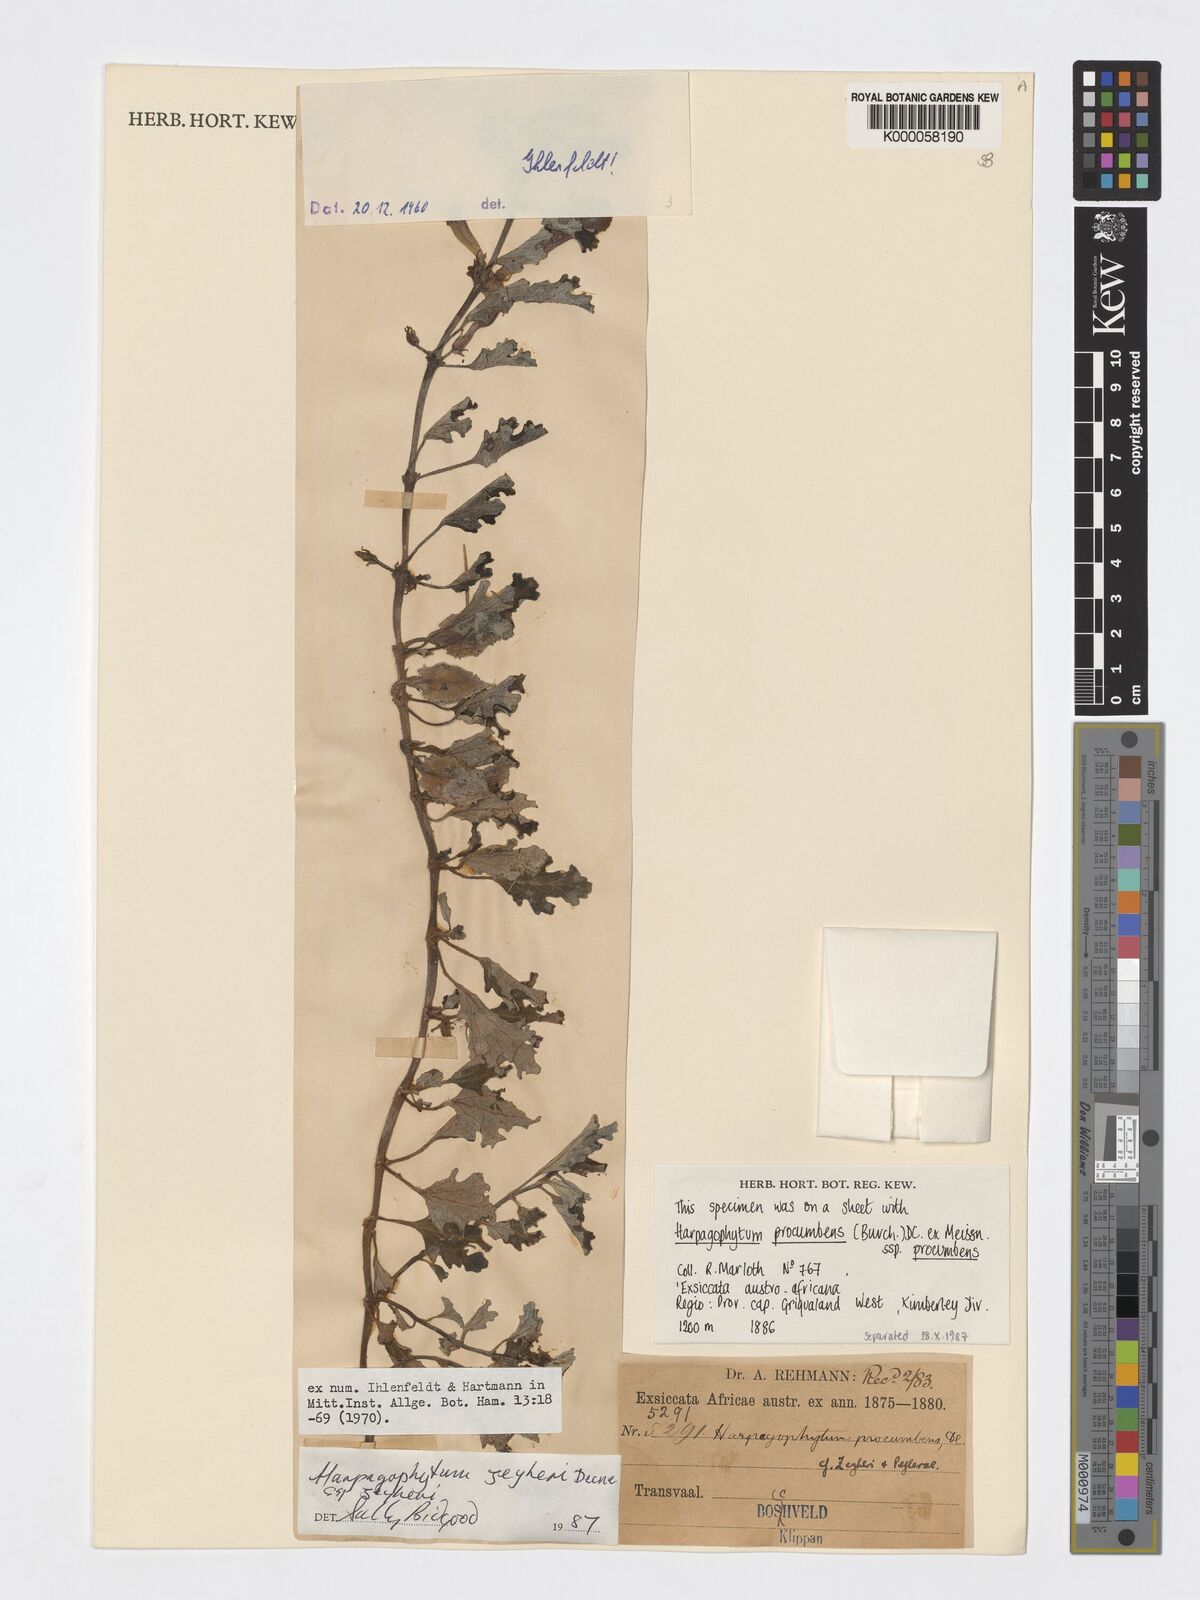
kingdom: Plantae
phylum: Tracheophyta
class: Magnoliopsida
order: Lamiales
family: Pedaliaceae
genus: Harpagophytum
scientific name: Harpagophytum zeyheri
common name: Grappleplant
